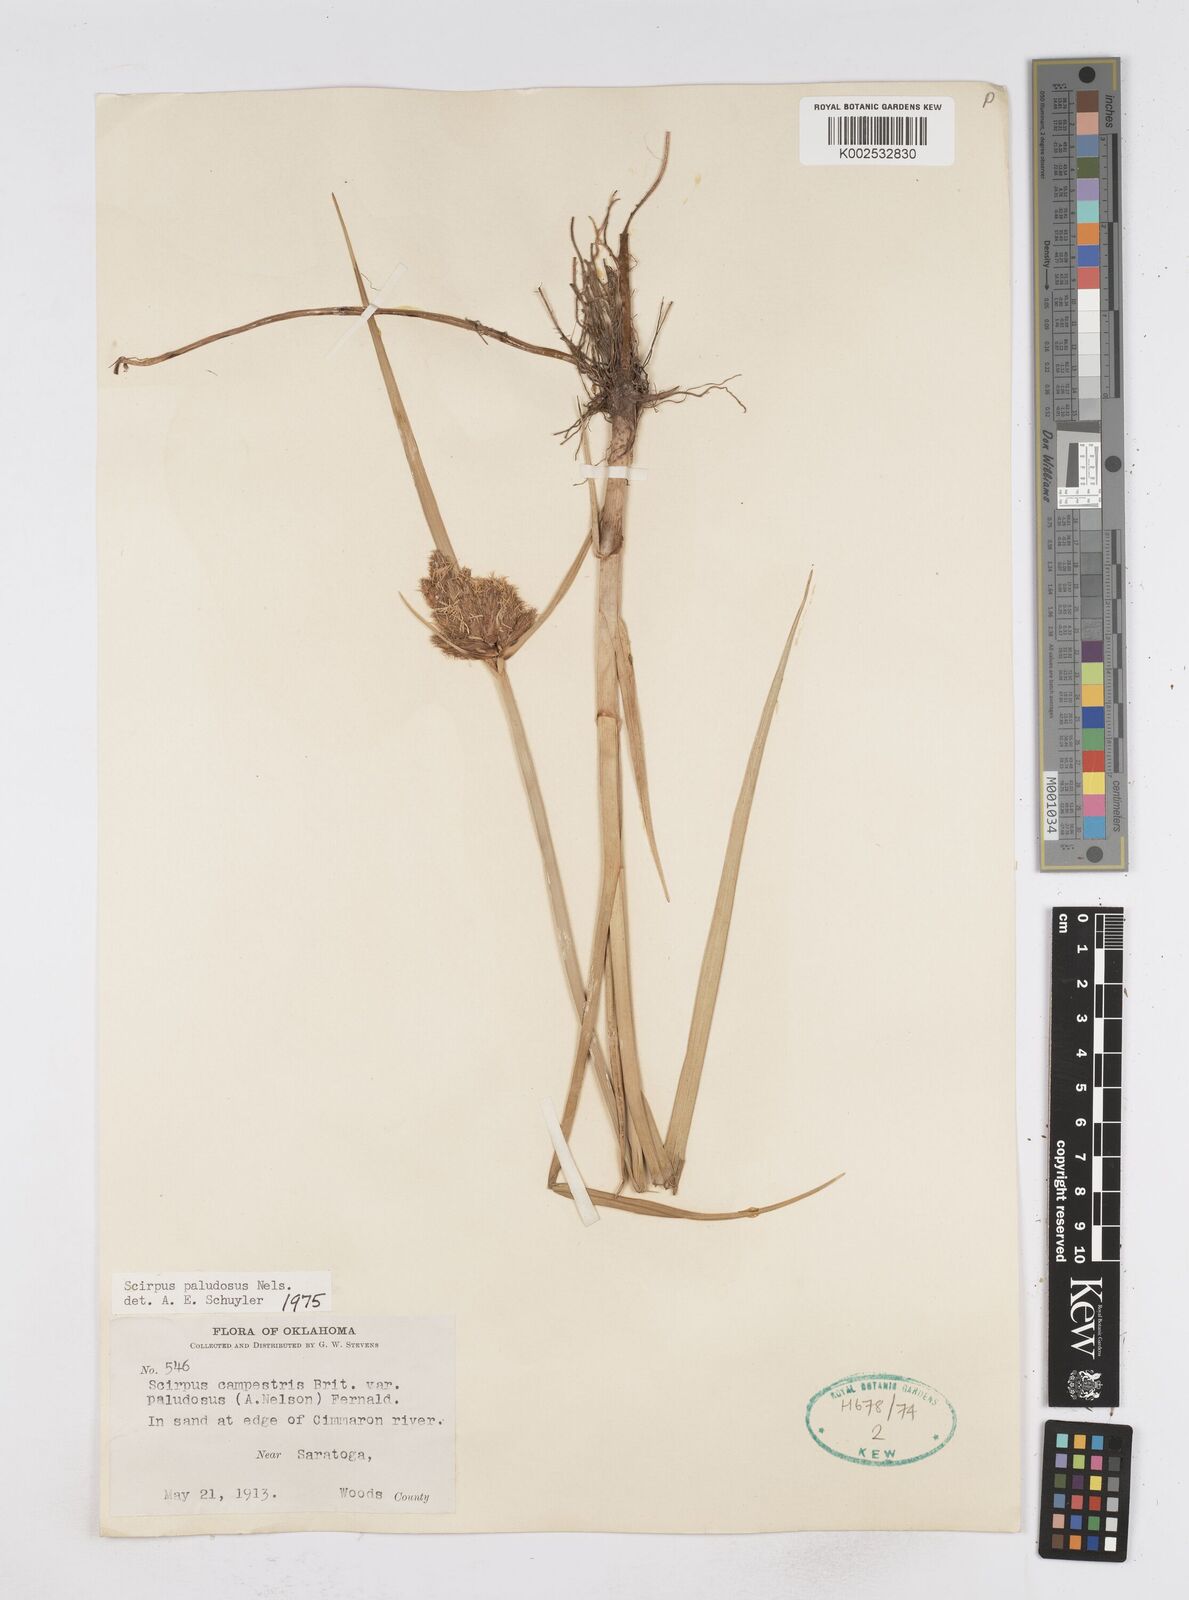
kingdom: Plantae
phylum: Tracheophyta
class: Liliopsida
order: Poales
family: Cyperaceae
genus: Bolboschoenus
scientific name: Bolboschoenus maritimus
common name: Sea club-rush
